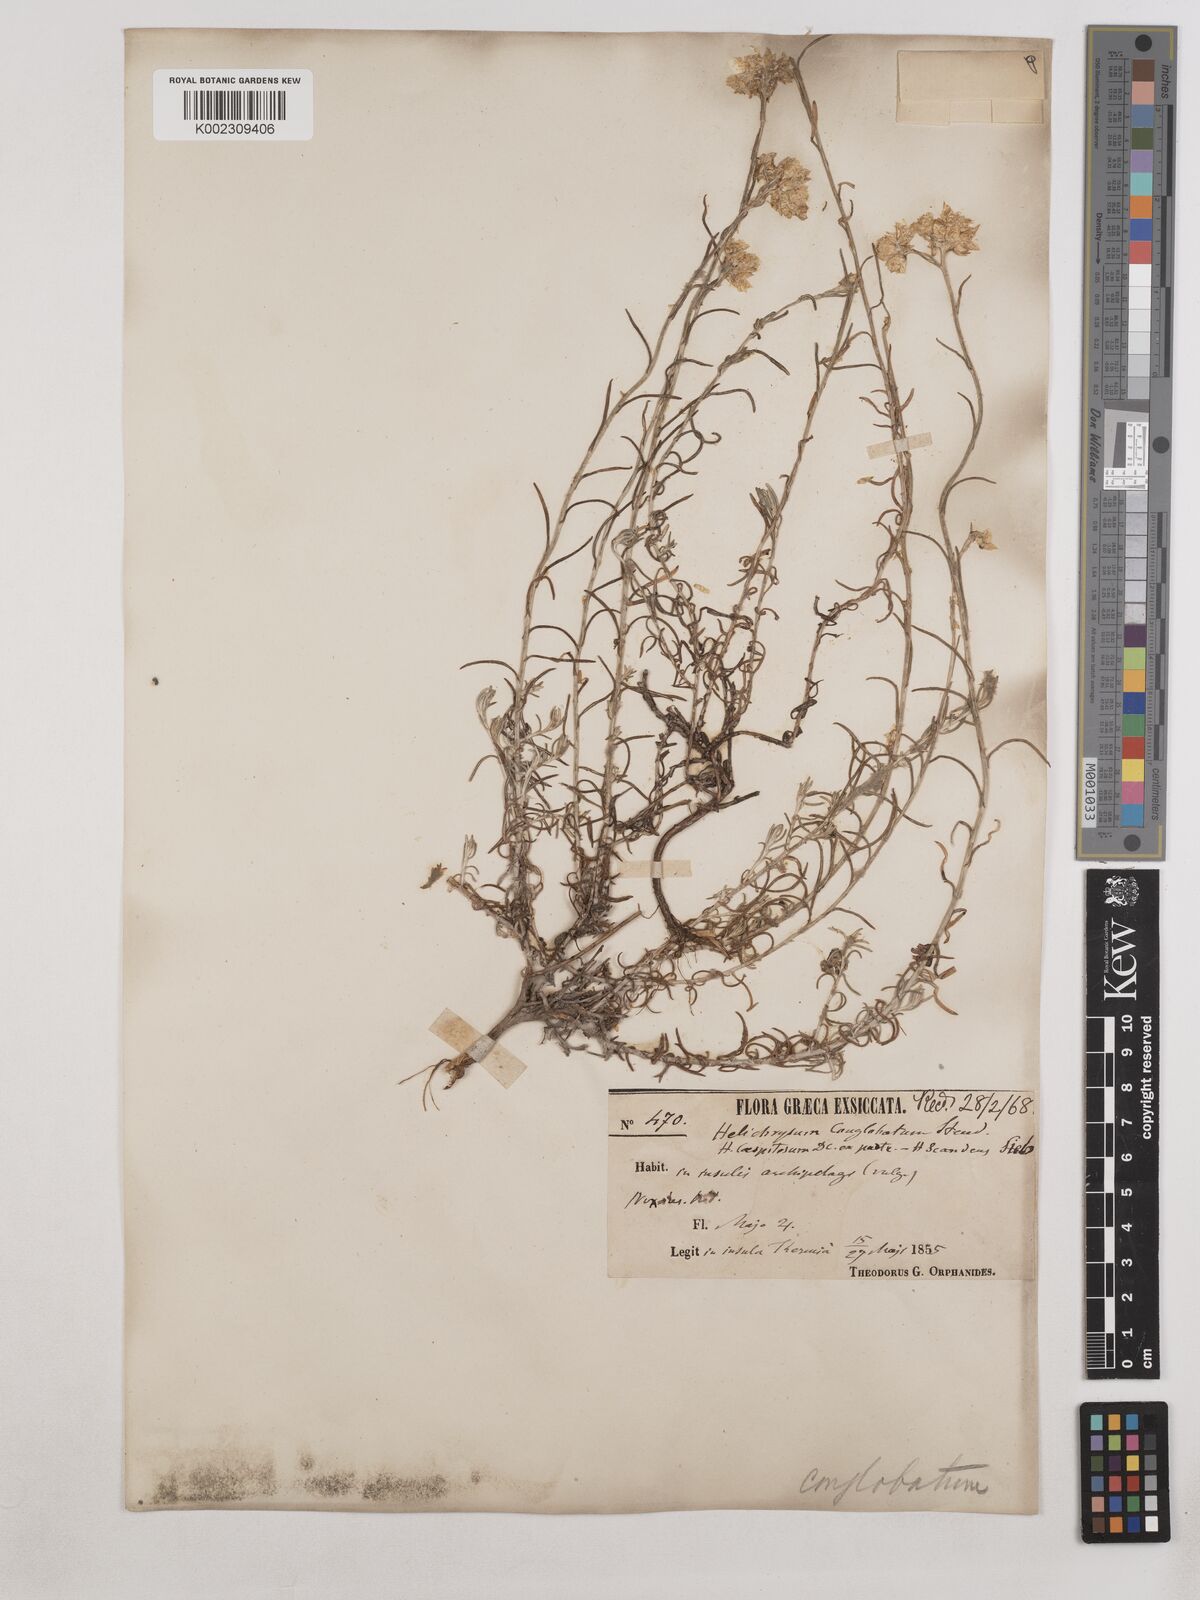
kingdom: Plantae
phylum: Tracheophyta
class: Magnoliopsida
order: Asterales
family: Asteraceae
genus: Helichrysum
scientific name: Helichrysum stoechas
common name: Goldilocks
